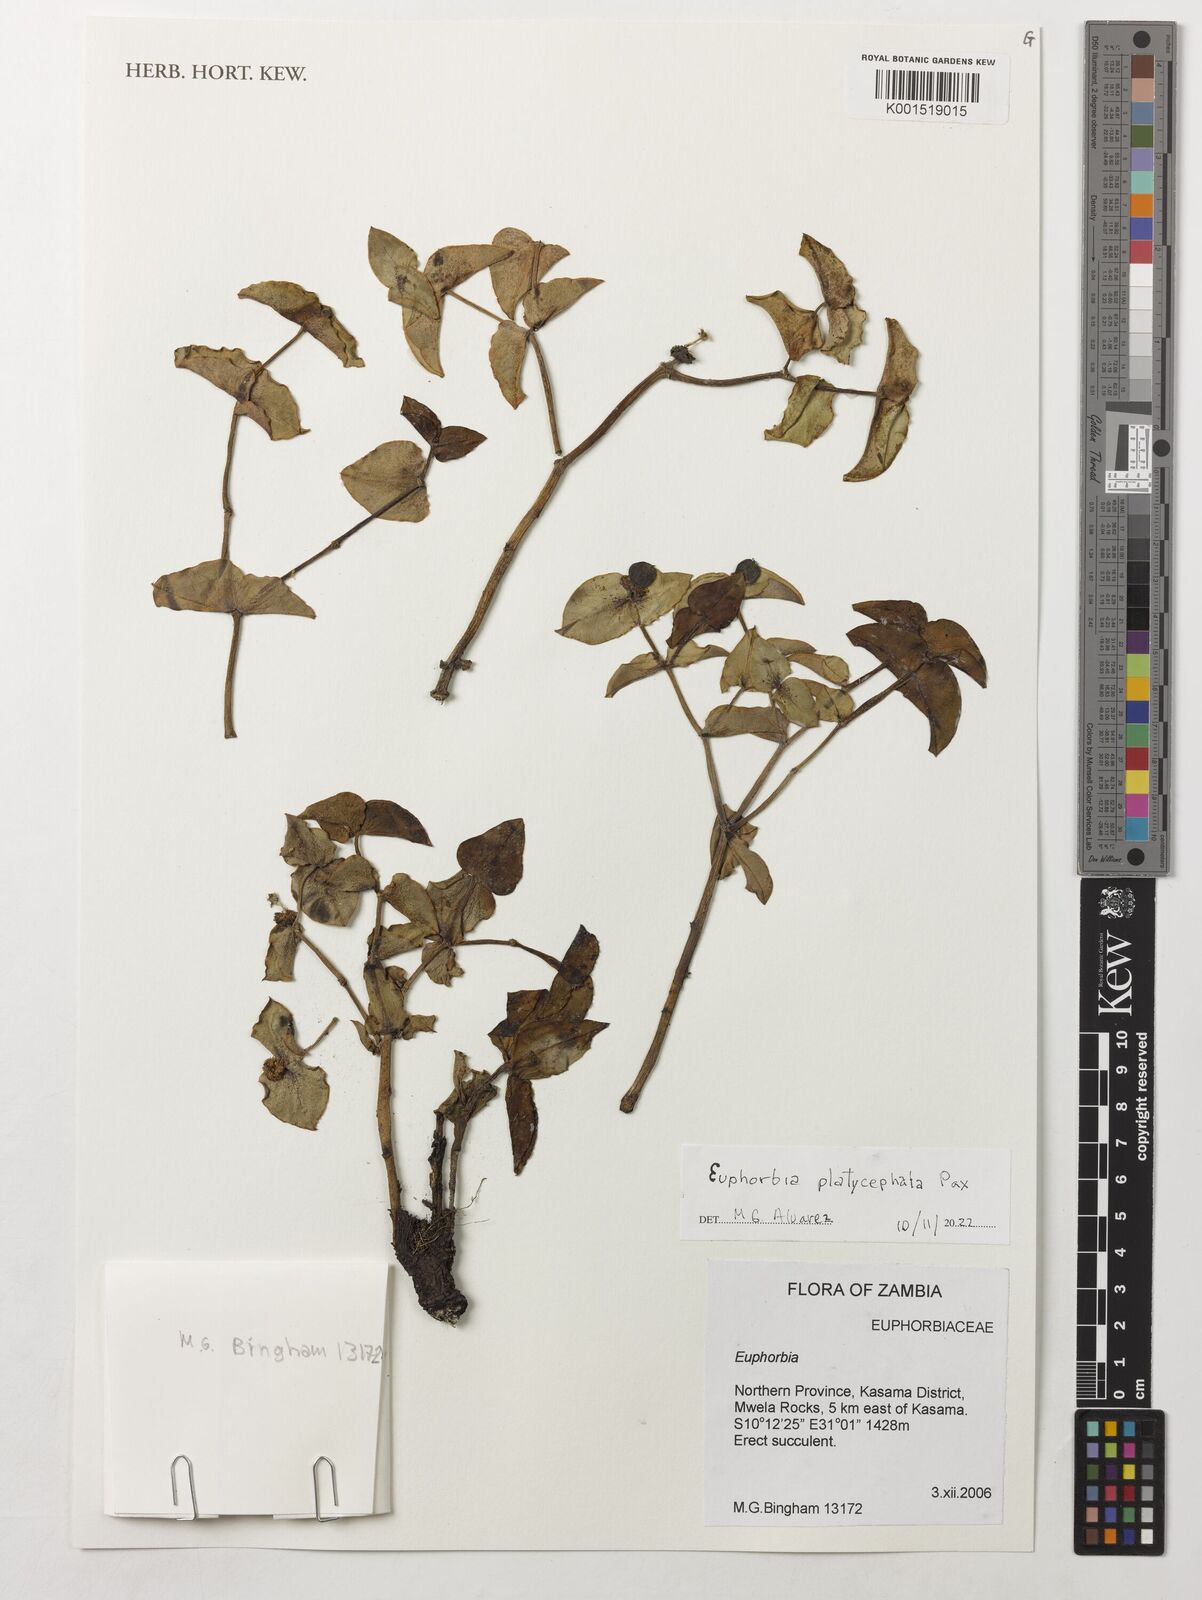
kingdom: Plantae
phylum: Tracheophyta
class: Magnoliopsida
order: Malpighiales
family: Euphorbiaceae
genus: Euphorbia
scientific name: Euphorbia platycephala
